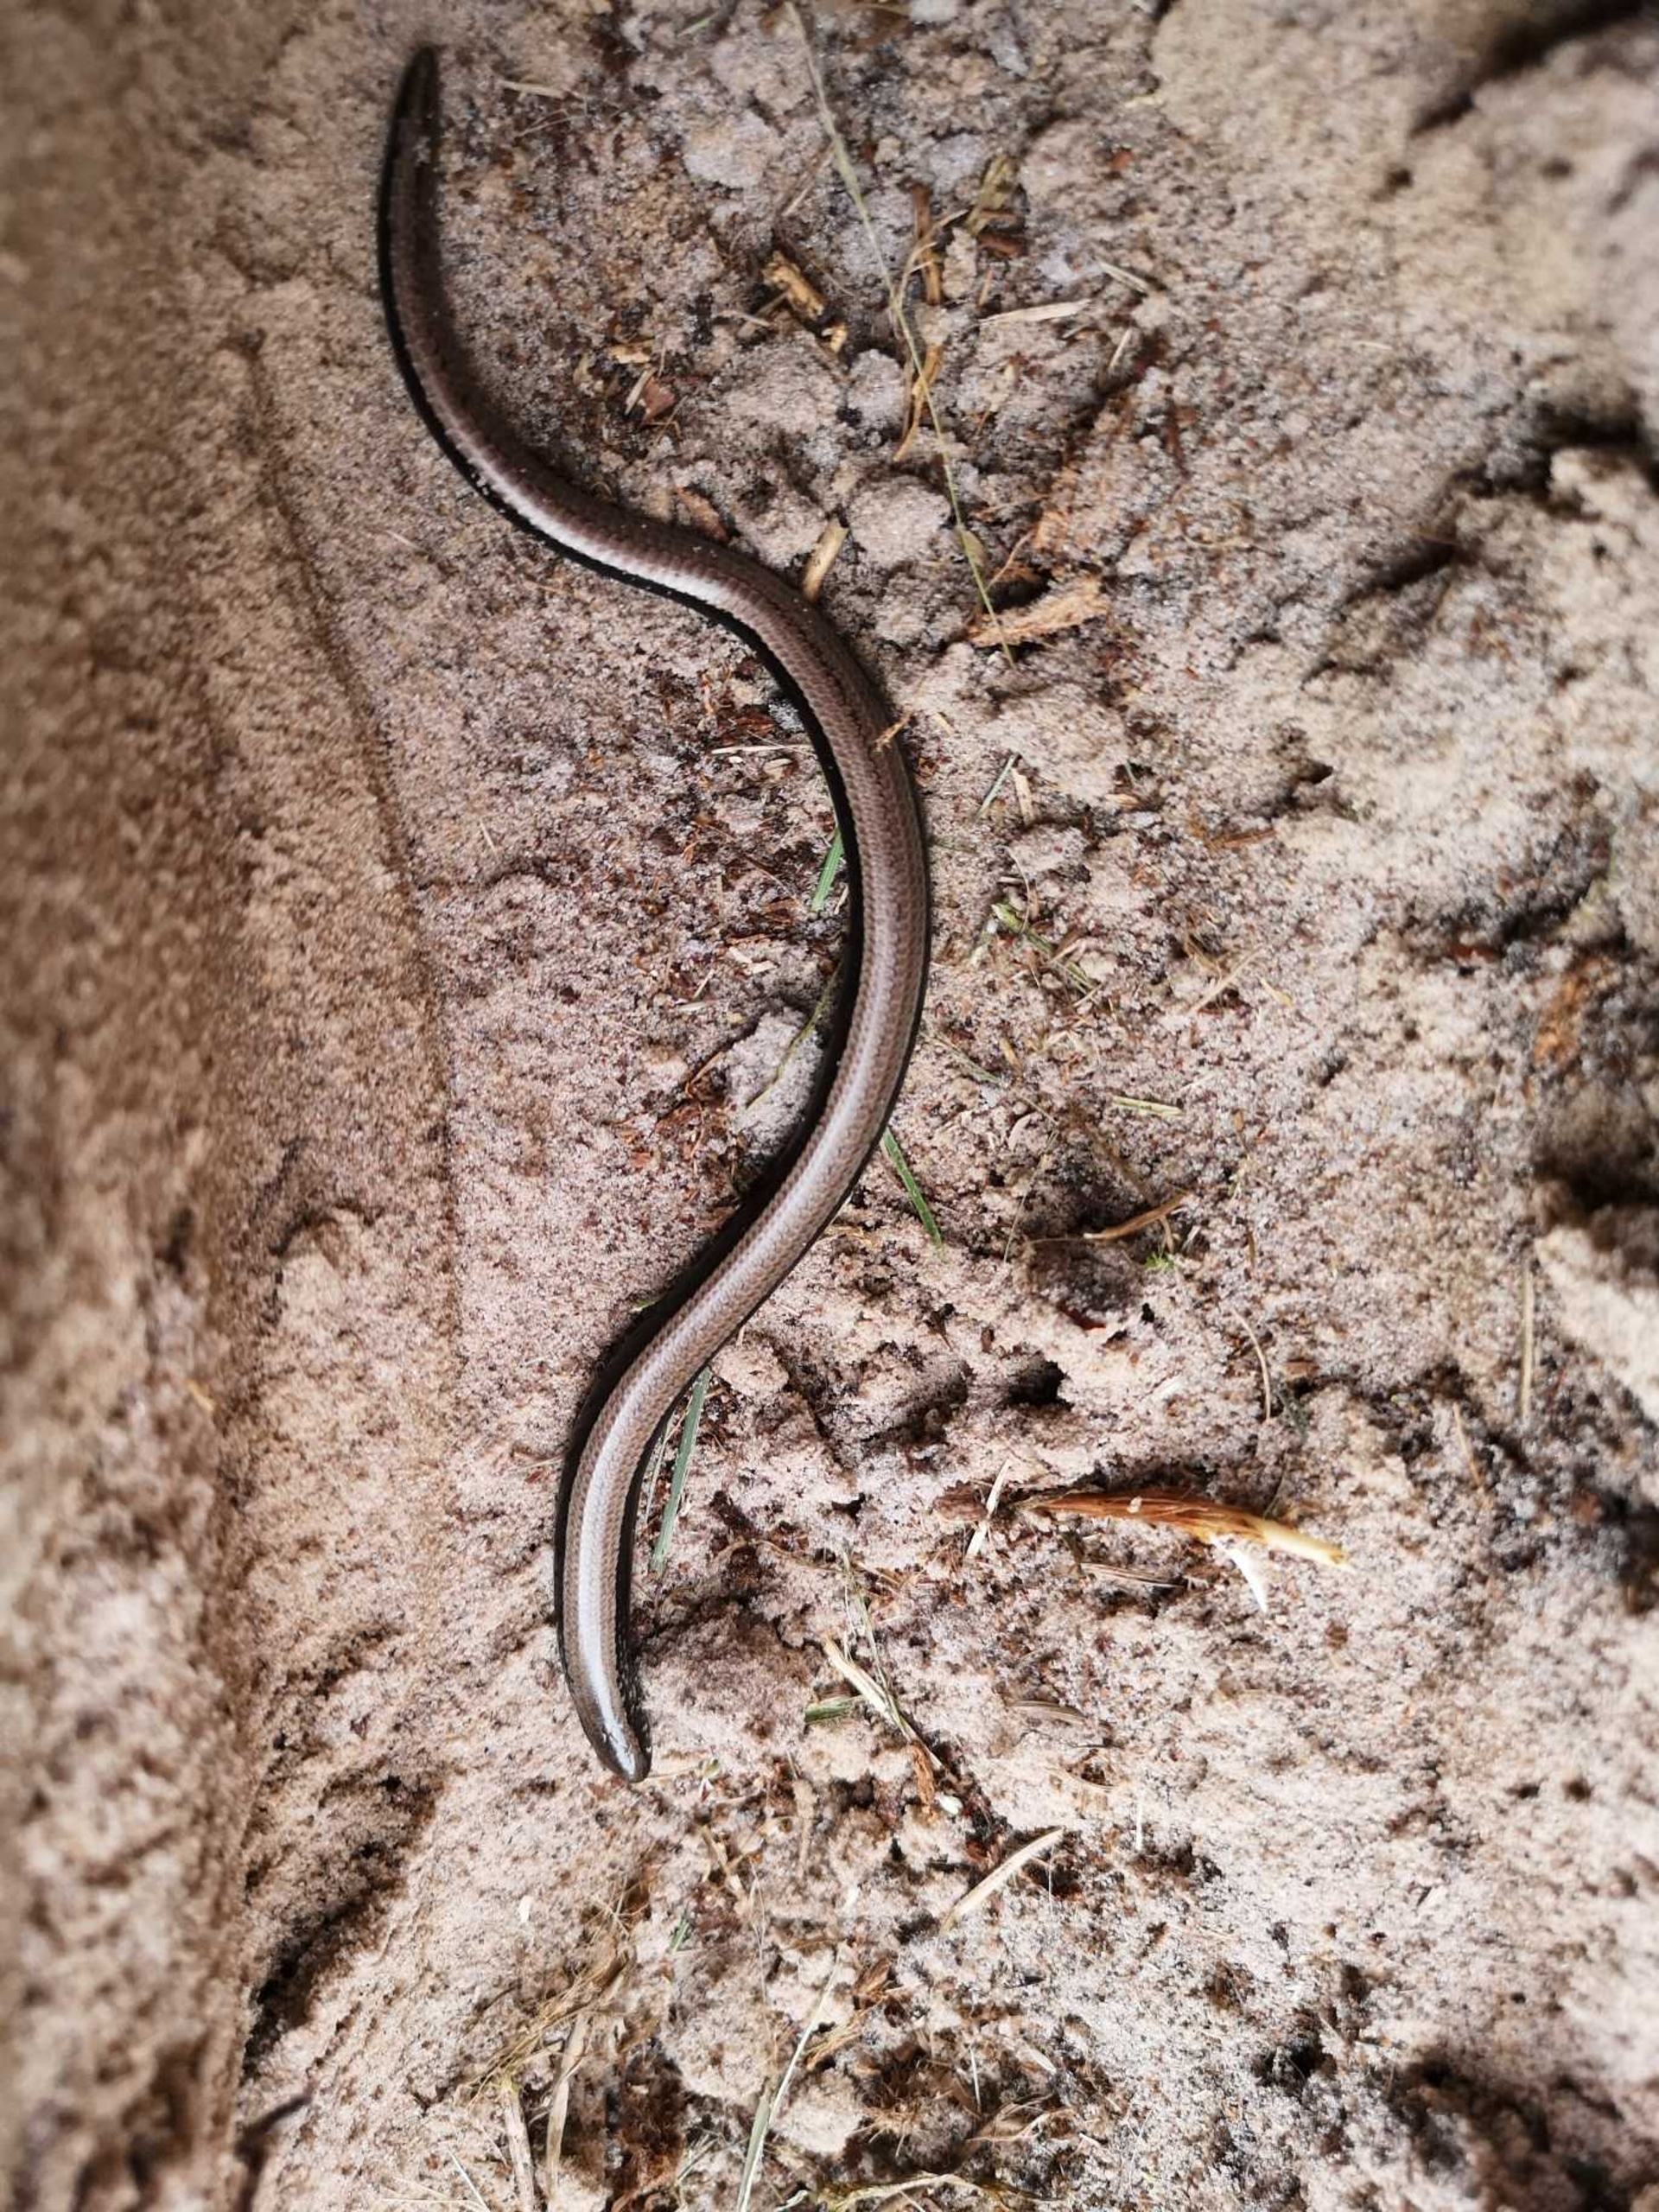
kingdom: Animalia
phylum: Chordata
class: Squamata
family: Anguidae
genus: Anguis
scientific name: Anguis fragilis
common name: Stålorm
